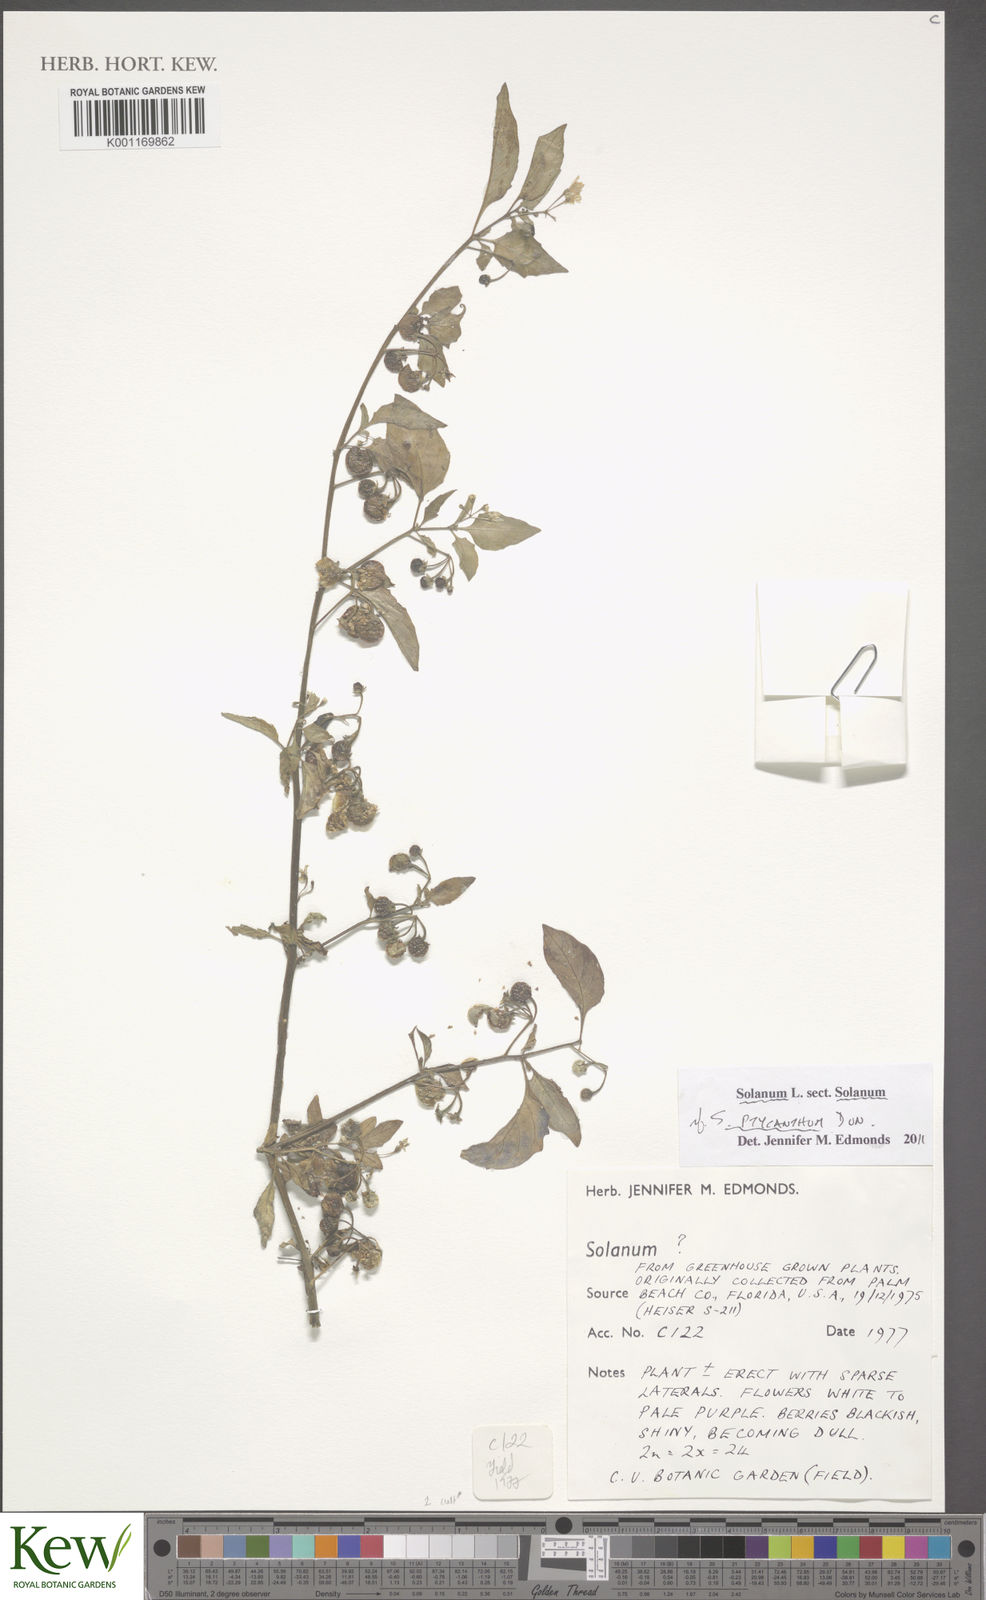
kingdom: Plantae
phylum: Tracheophyta
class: Magnoliopsida
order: Solanales
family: Solanaceae
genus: Solanum
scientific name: Solanum americanum
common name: American black nightshade
